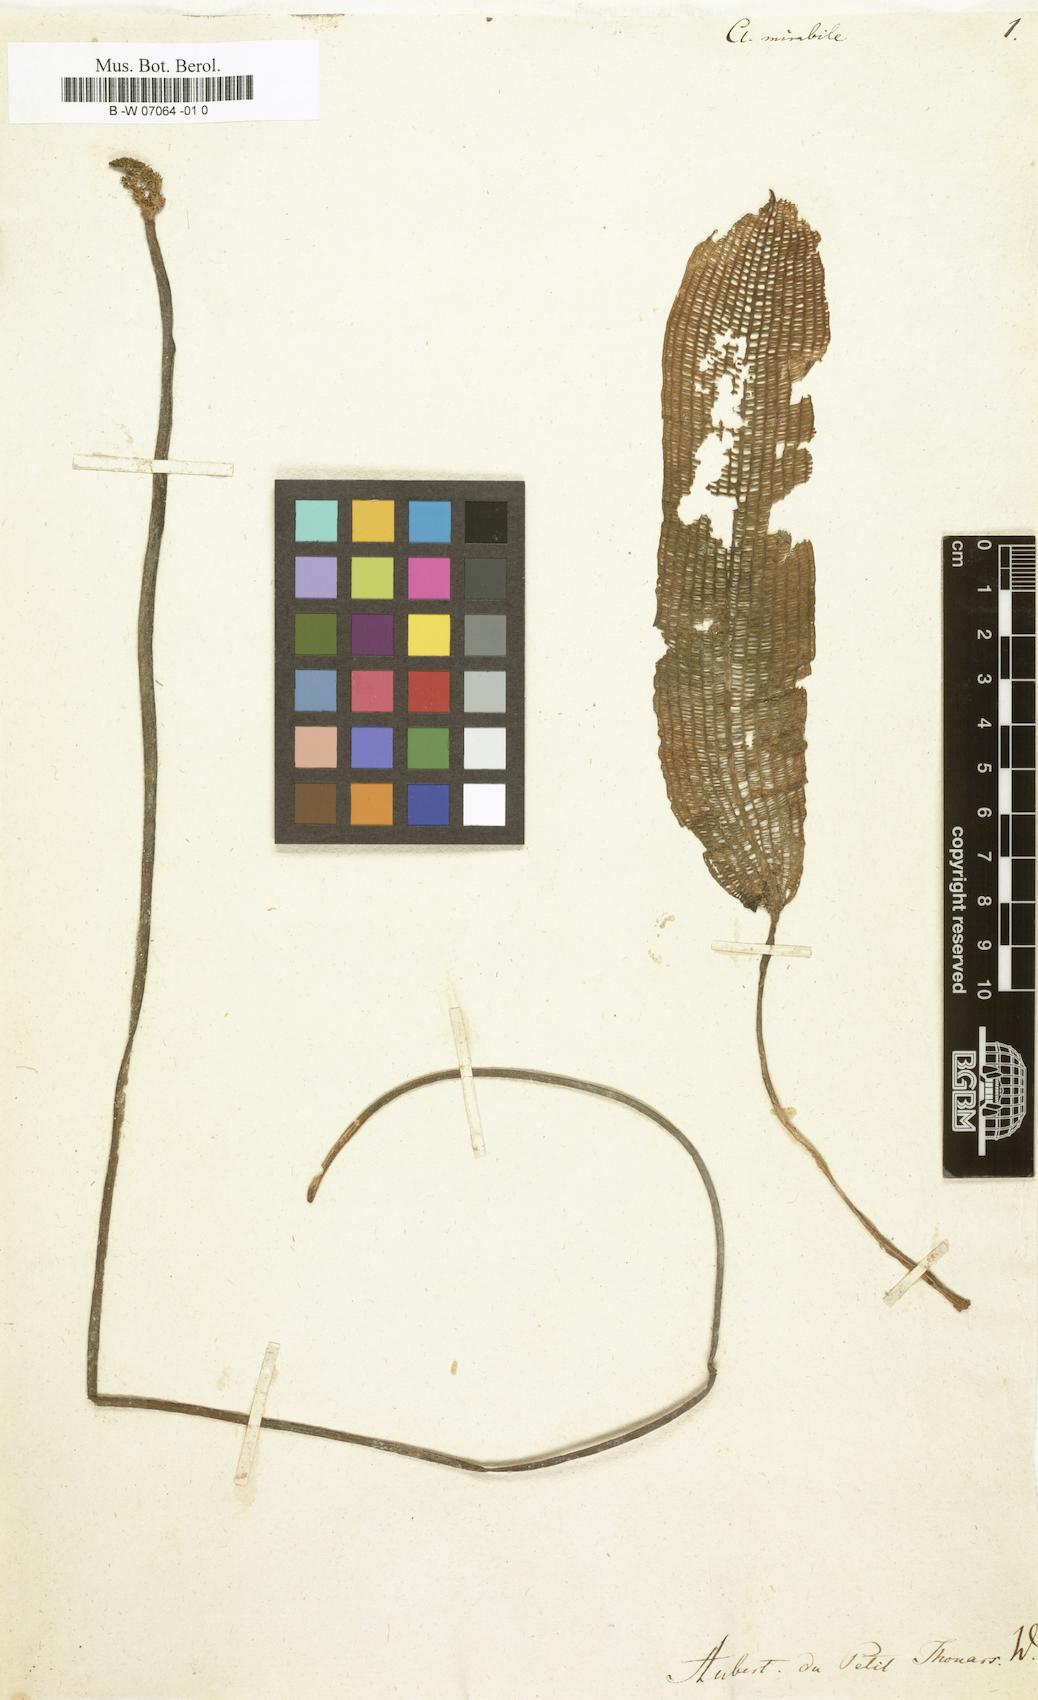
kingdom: Plantae
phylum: Tracheophyta
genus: Clathrophyllum
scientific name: Clathrophyllum
